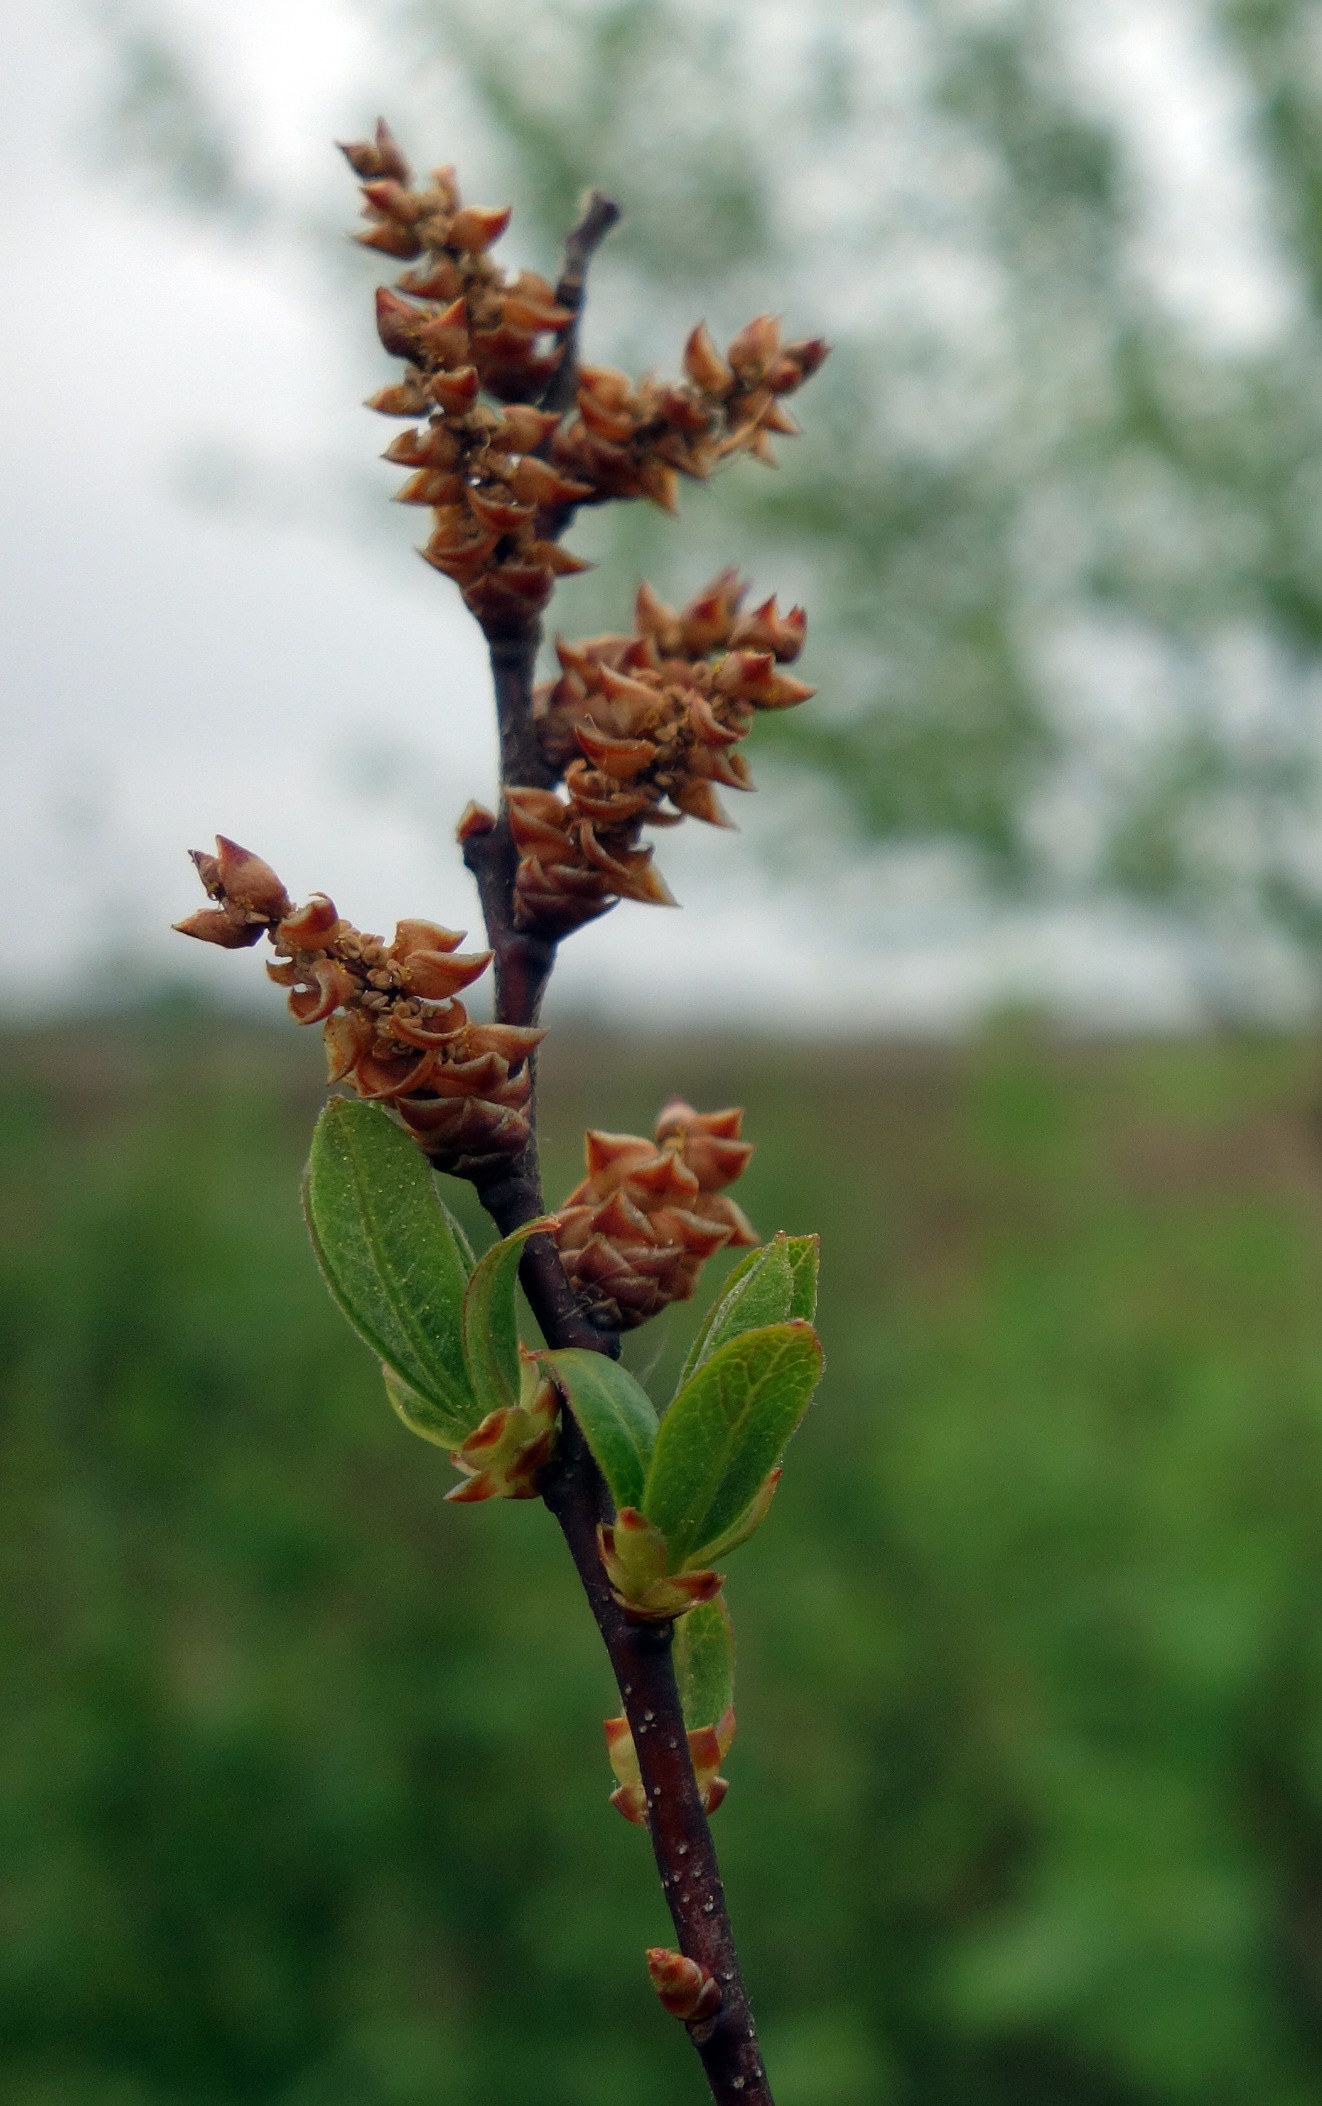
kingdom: Plantae
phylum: Tracheophyta
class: Magnoliopsida
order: Fagales
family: Myricaceae
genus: Myrica
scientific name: Myrica gale
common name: Pors
